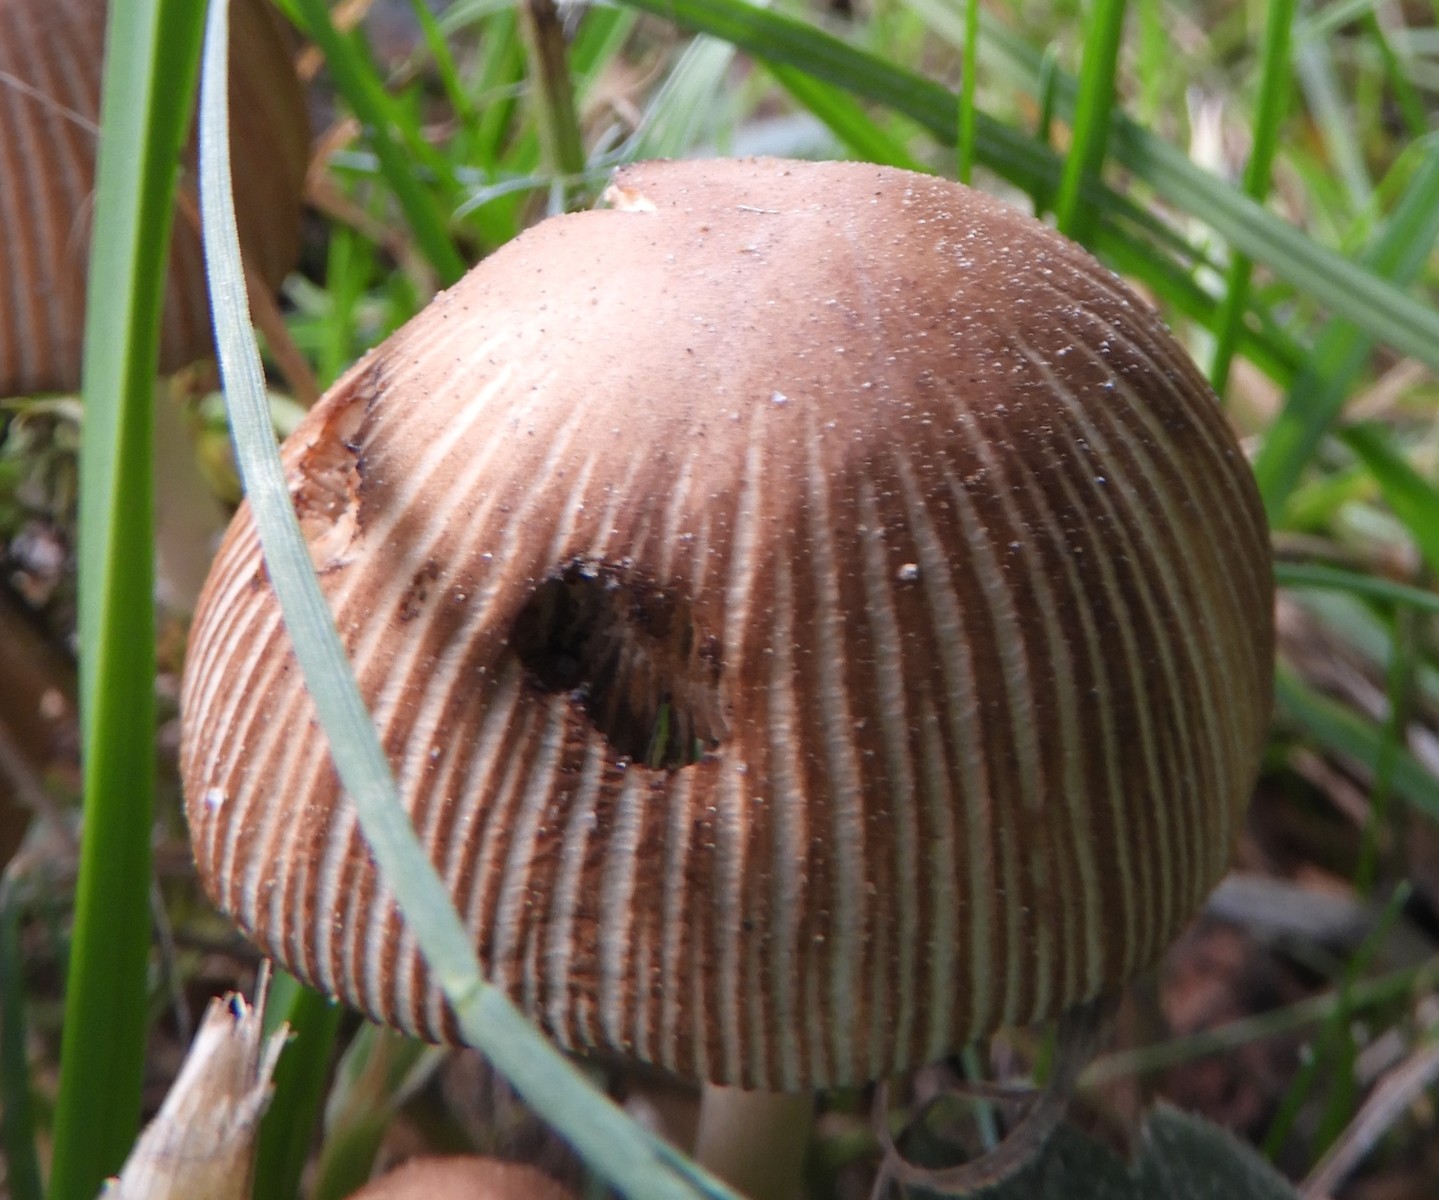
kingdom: Fungi
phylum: Basidiomycota
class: Agaricomycetes
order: Agaricales
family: Psathyrellaceae
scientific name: Psathyrellaceae
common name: mørkhatfamilien
